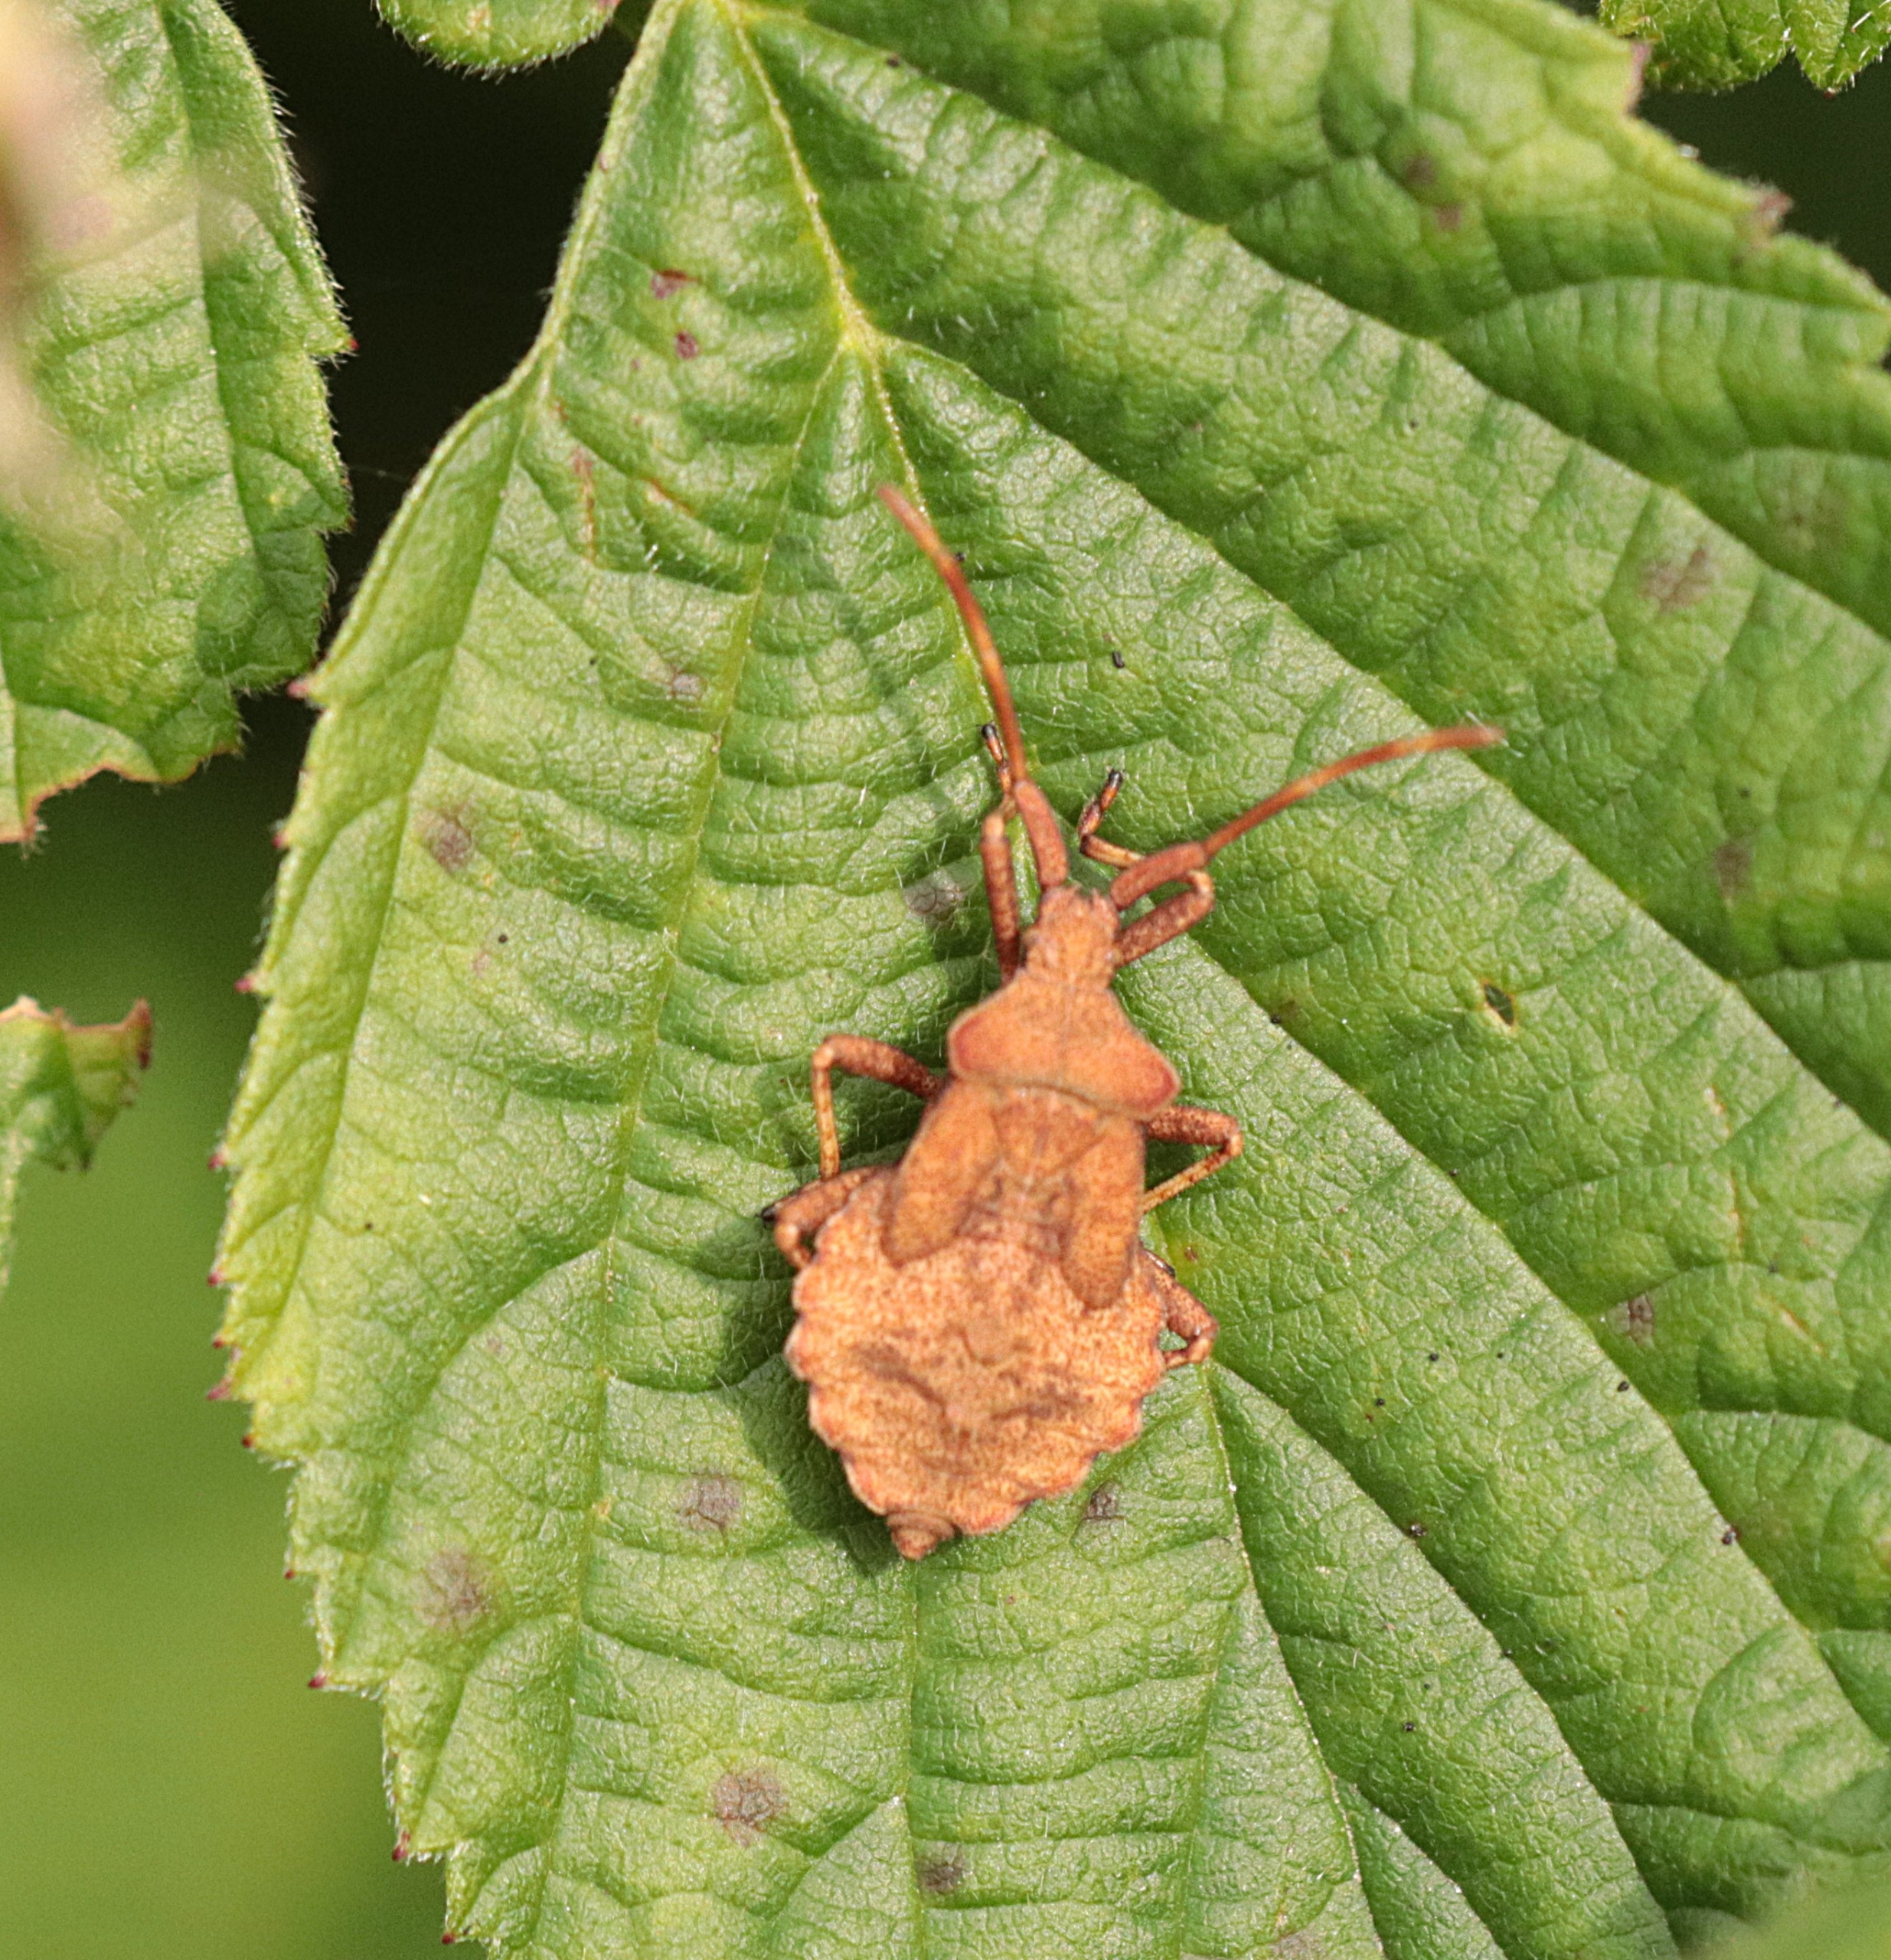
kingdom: Animalia
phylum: Arthropoda
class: Insecta
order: Hemiptera
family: Coreidae
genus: Coreus
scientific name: Coreus marginatus
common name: Skræppetæge
